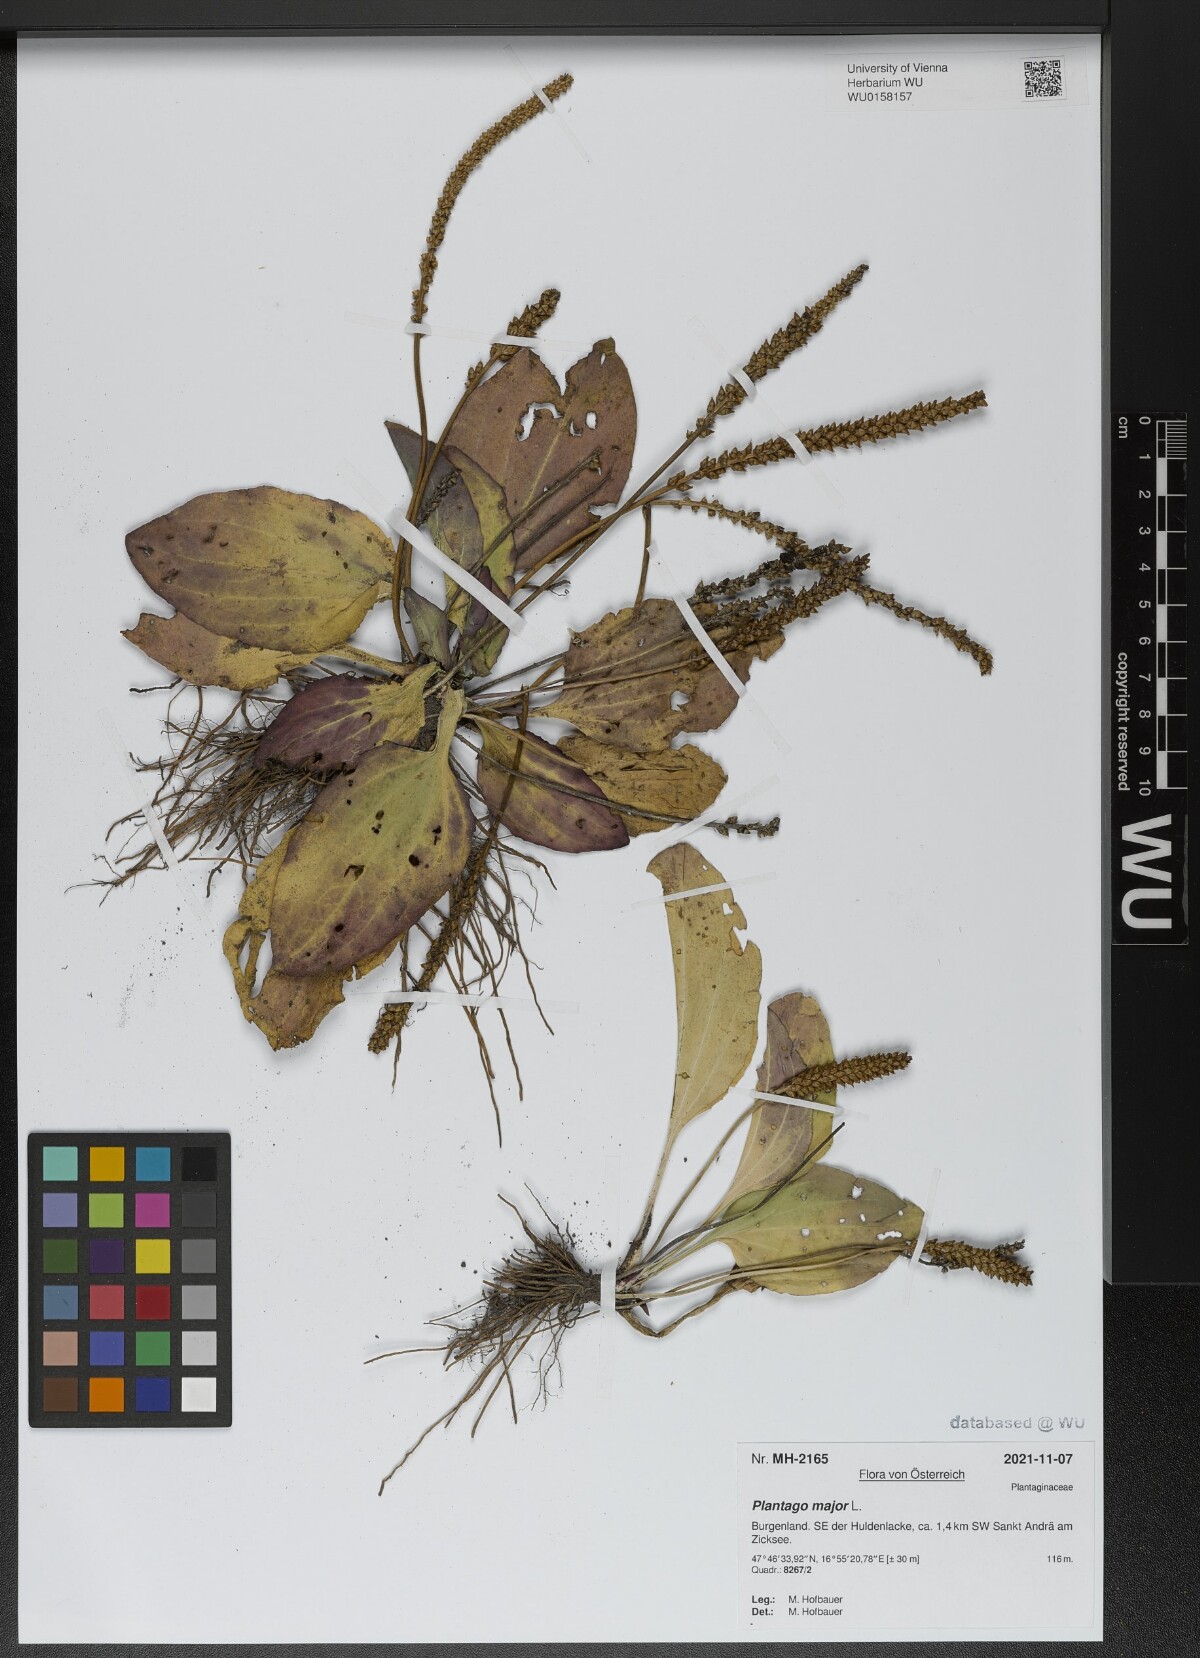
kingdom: Plantae
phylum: Tracheophyta
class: Magnoliopsida
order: Lamiales
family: Plantaginaceae
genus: Plantago
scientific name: Plantago major
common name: Common plantain
